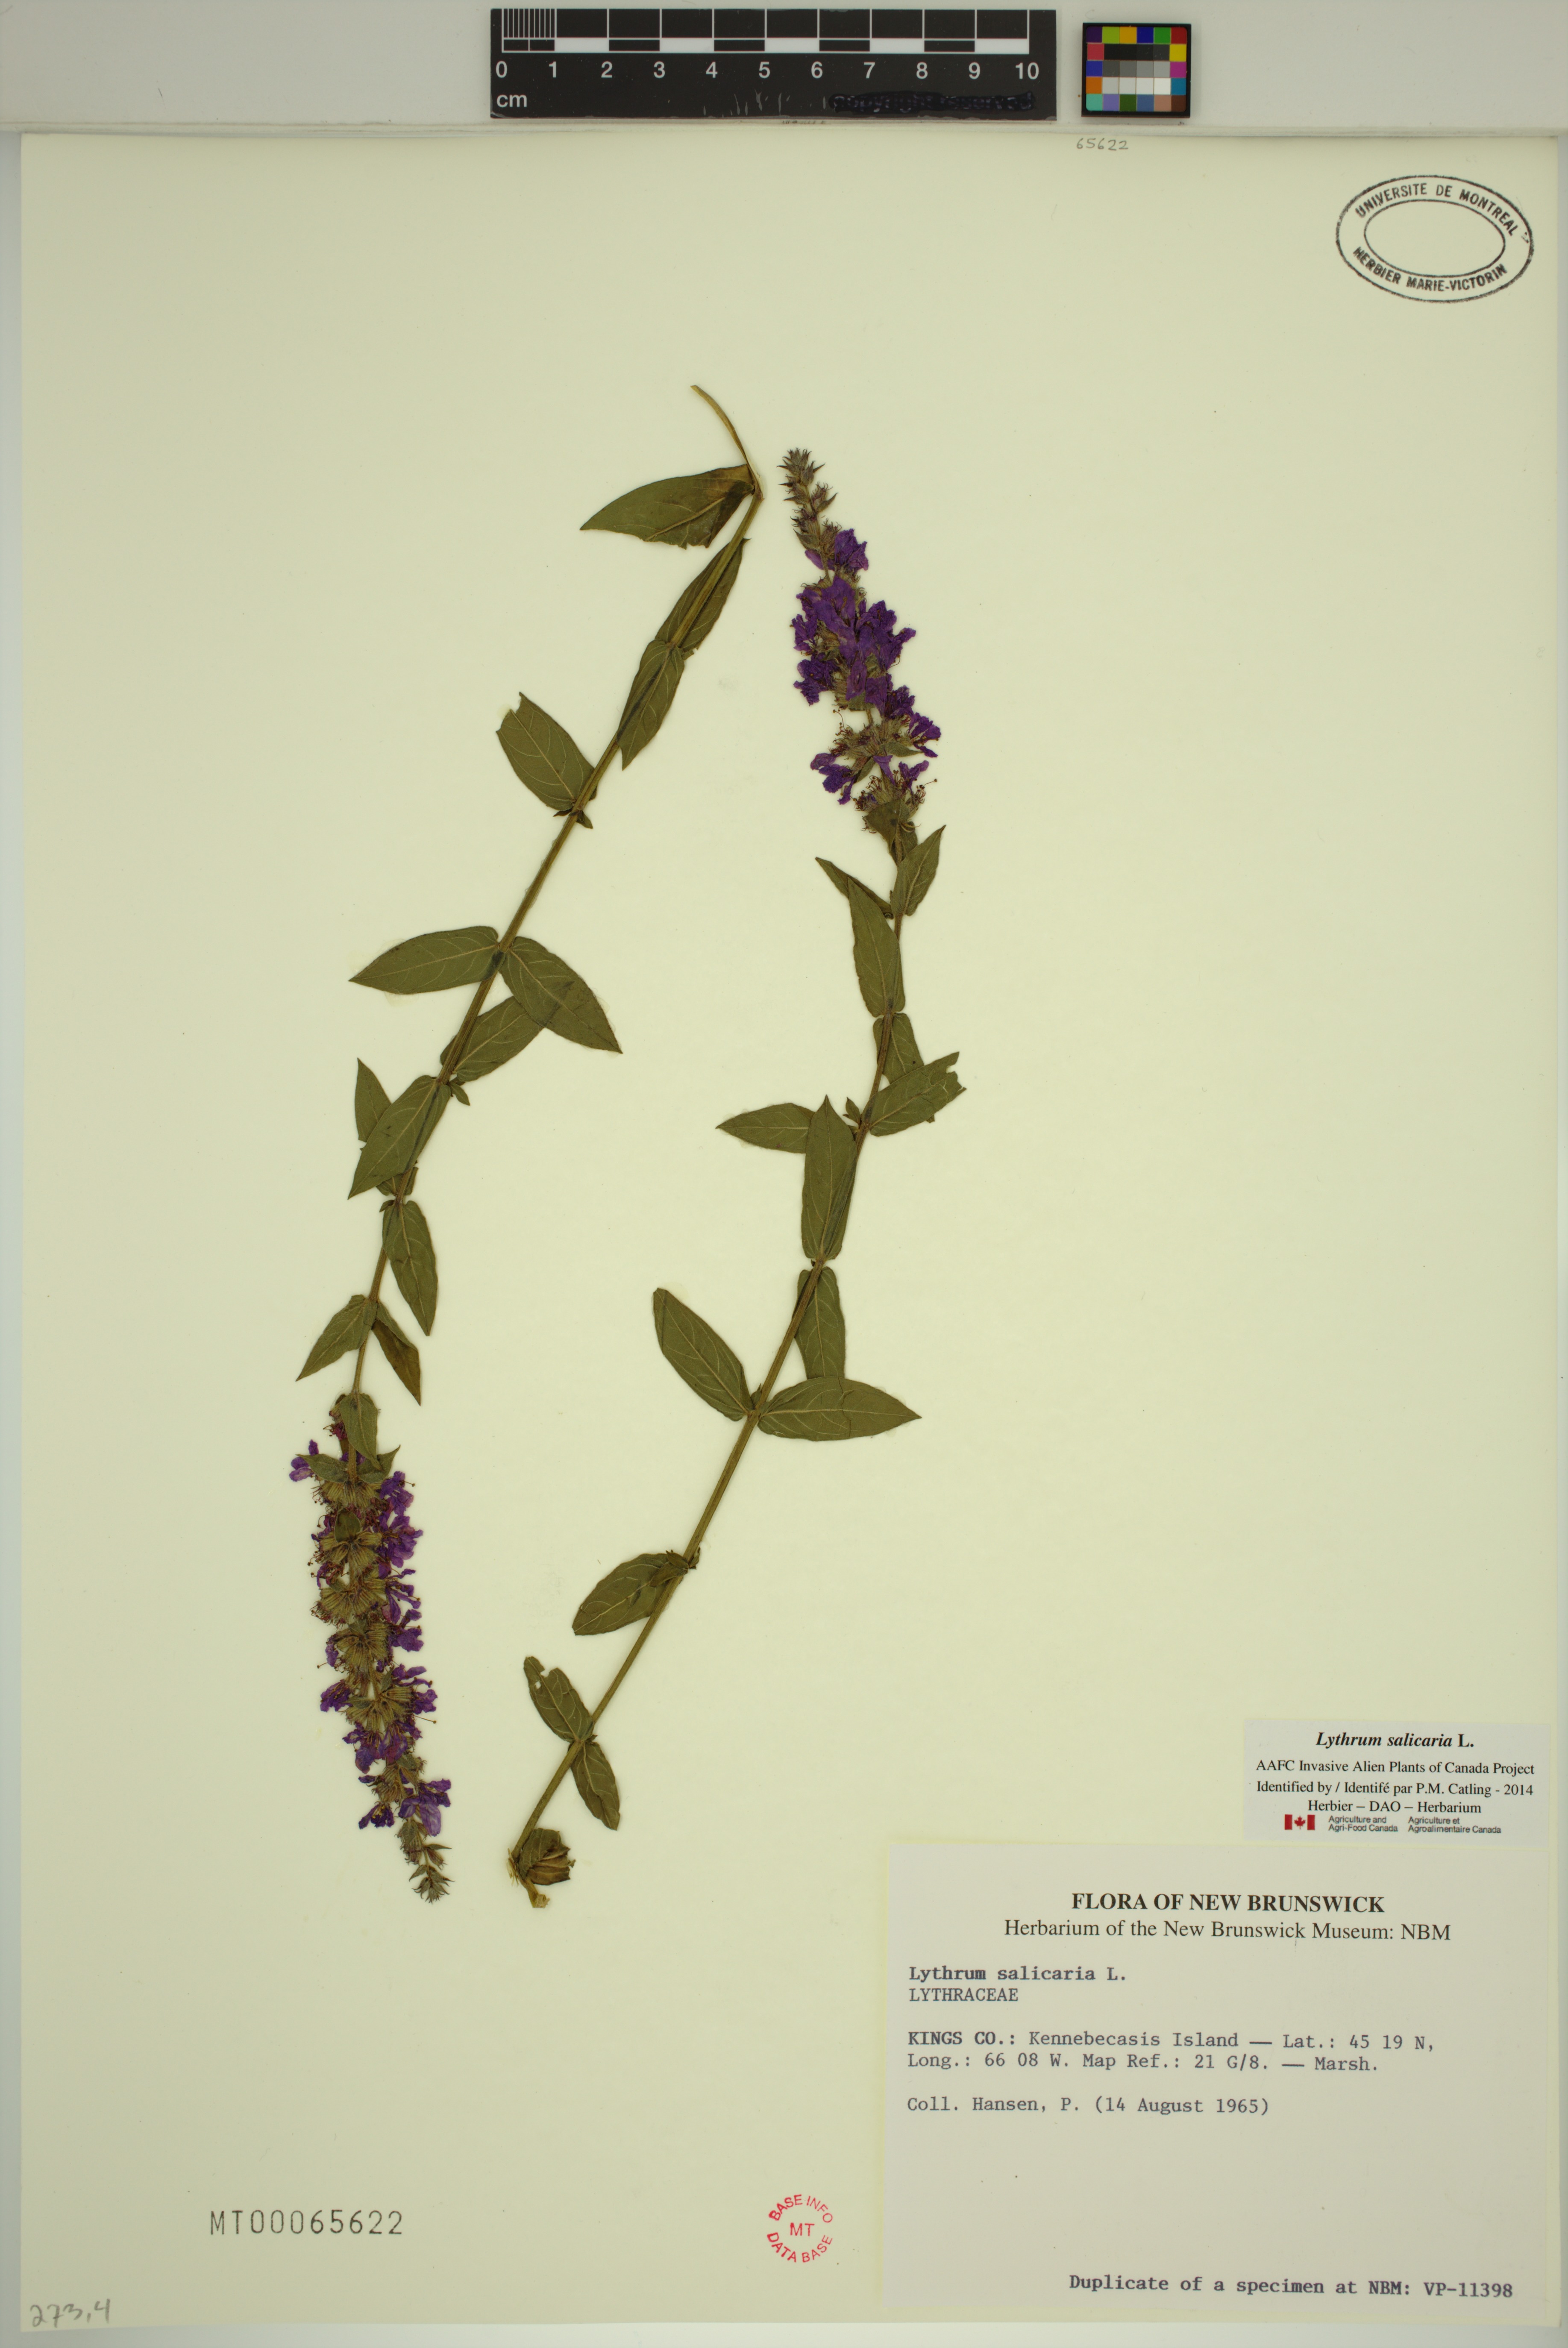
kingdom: Plantae
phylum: Tracheophyta
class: Magnoliopsida
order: Myrtales
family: Lythraceae
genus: Lythrum
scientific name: Lythrum salicaria
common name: Purple loosestrife
